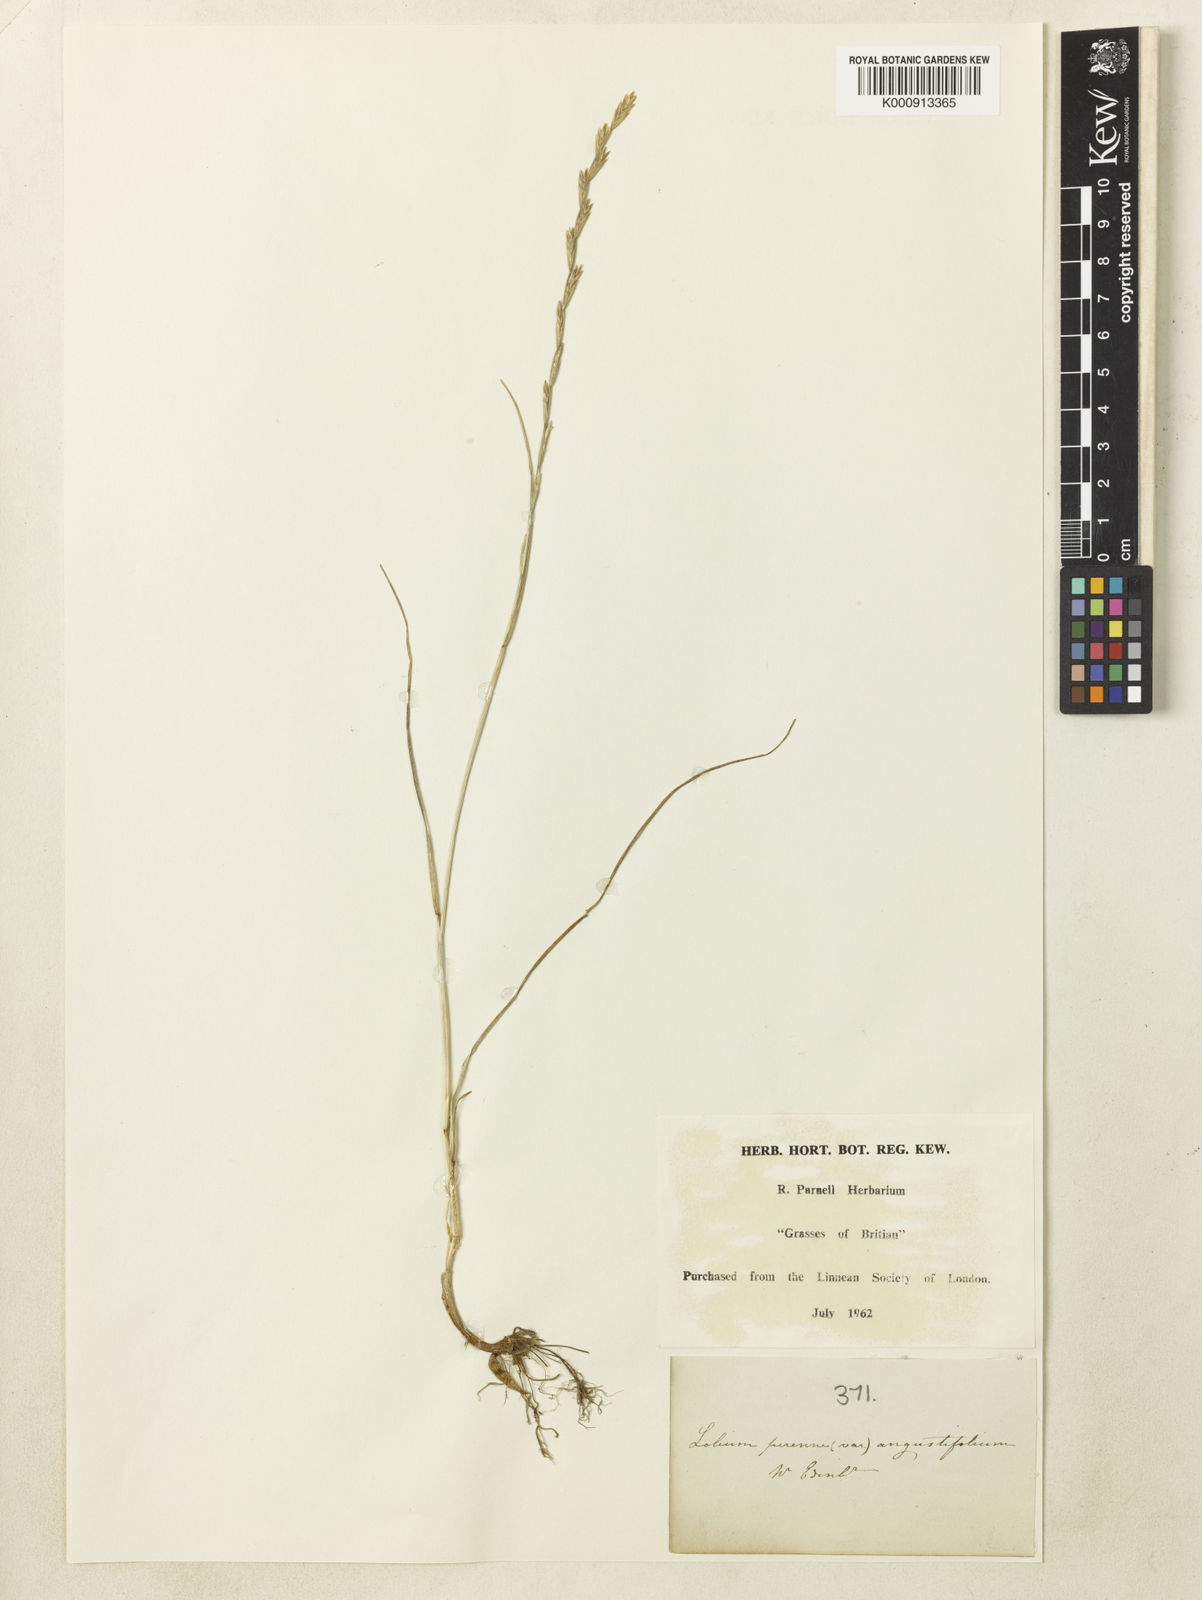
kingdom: Plantae
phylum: Tracheophyta
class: Liliopsida
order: Poales
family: Poaceae
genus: Lolium
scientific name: Lolium perenne
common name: Perennial ryegrass
